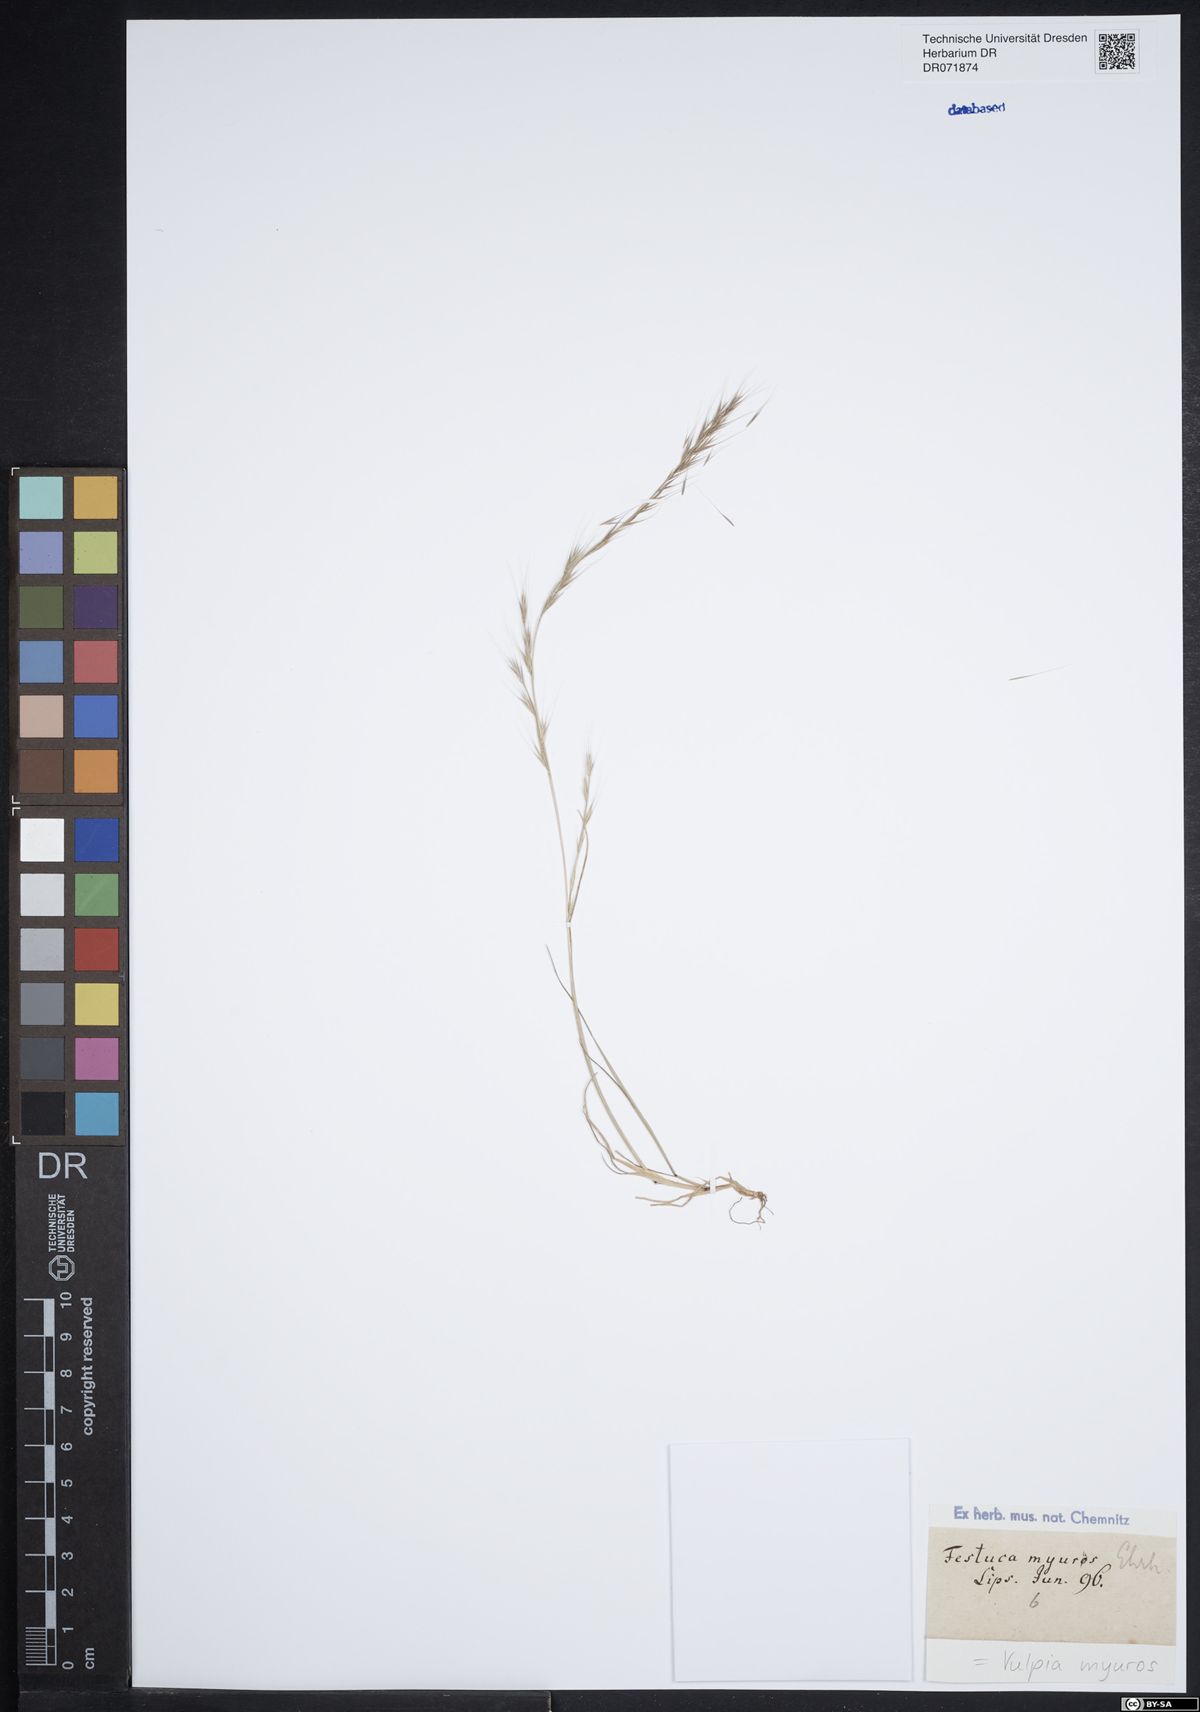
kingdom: Plantae
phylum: Tracheophyta
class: Liliopsida
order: Poales
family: Poaceae
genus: Festuca
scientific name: Festuca myuros
